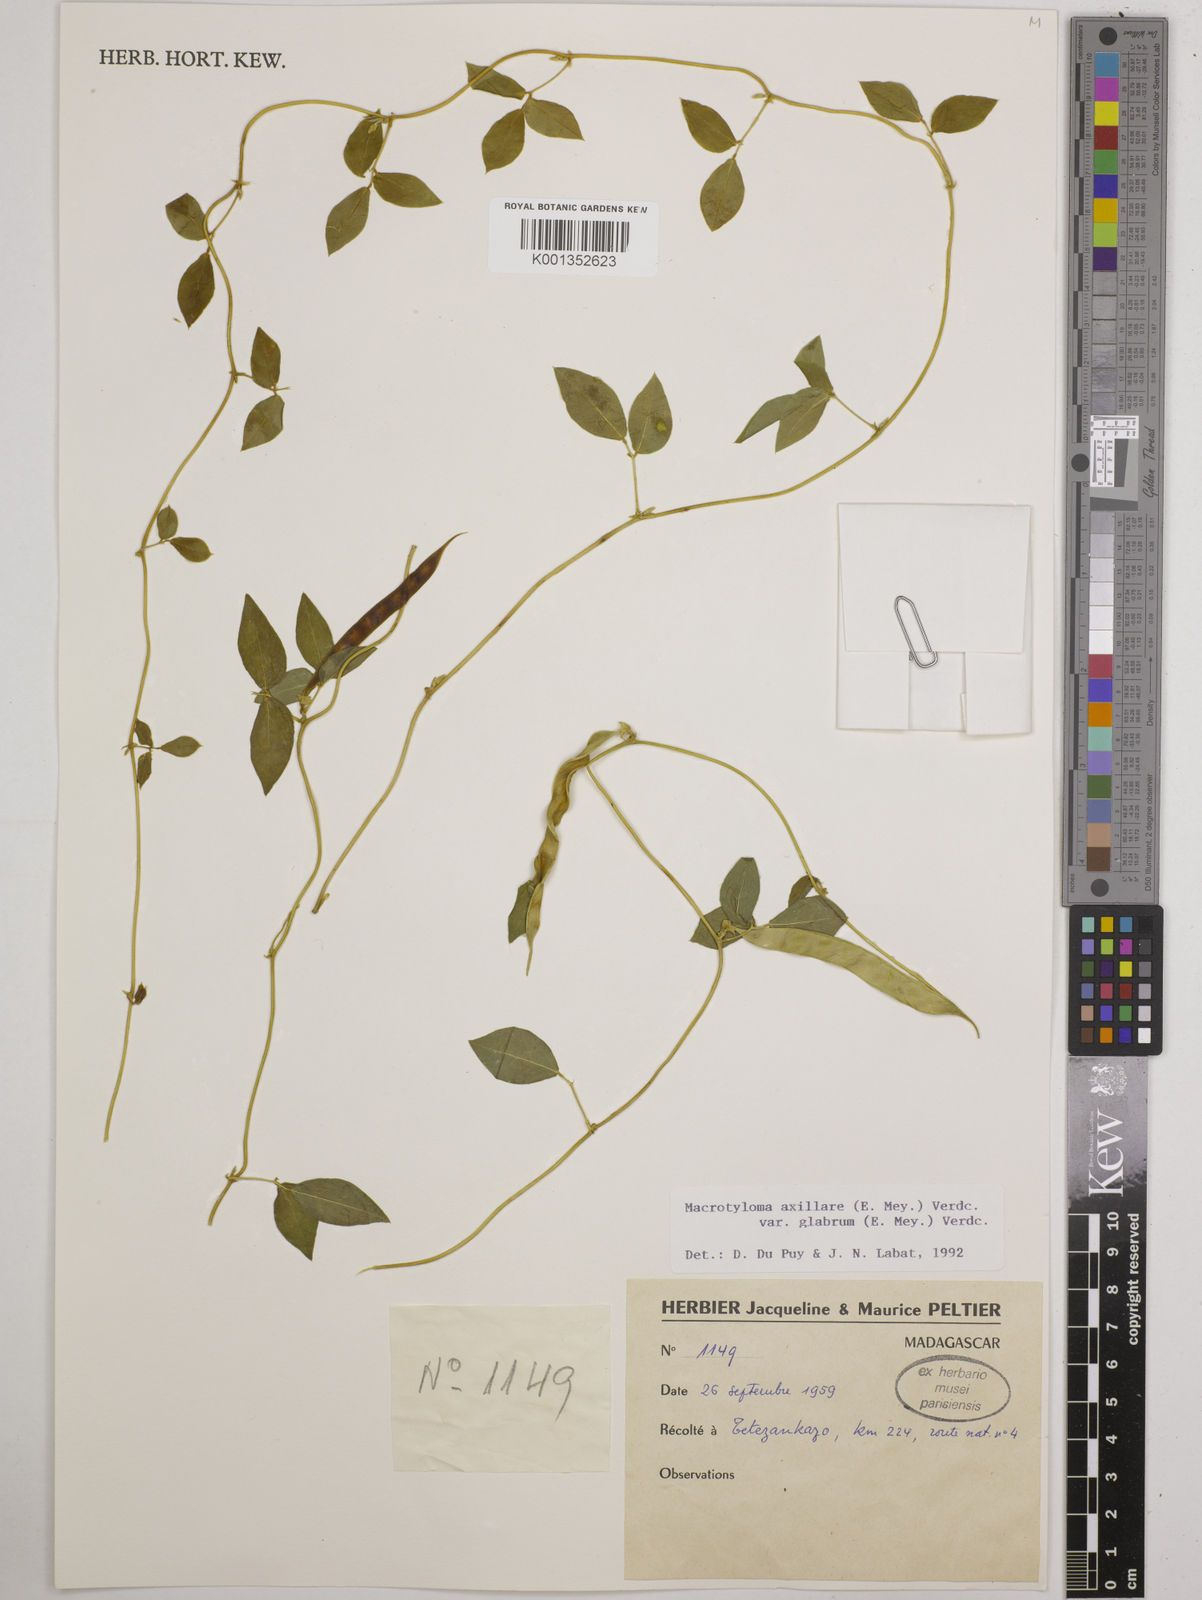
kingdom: Plantae
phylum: Tracheophyta
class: Magnoliopsida
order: Fabales
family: Fabaceae
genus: Macrotyloma
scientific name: Macrotyloma
